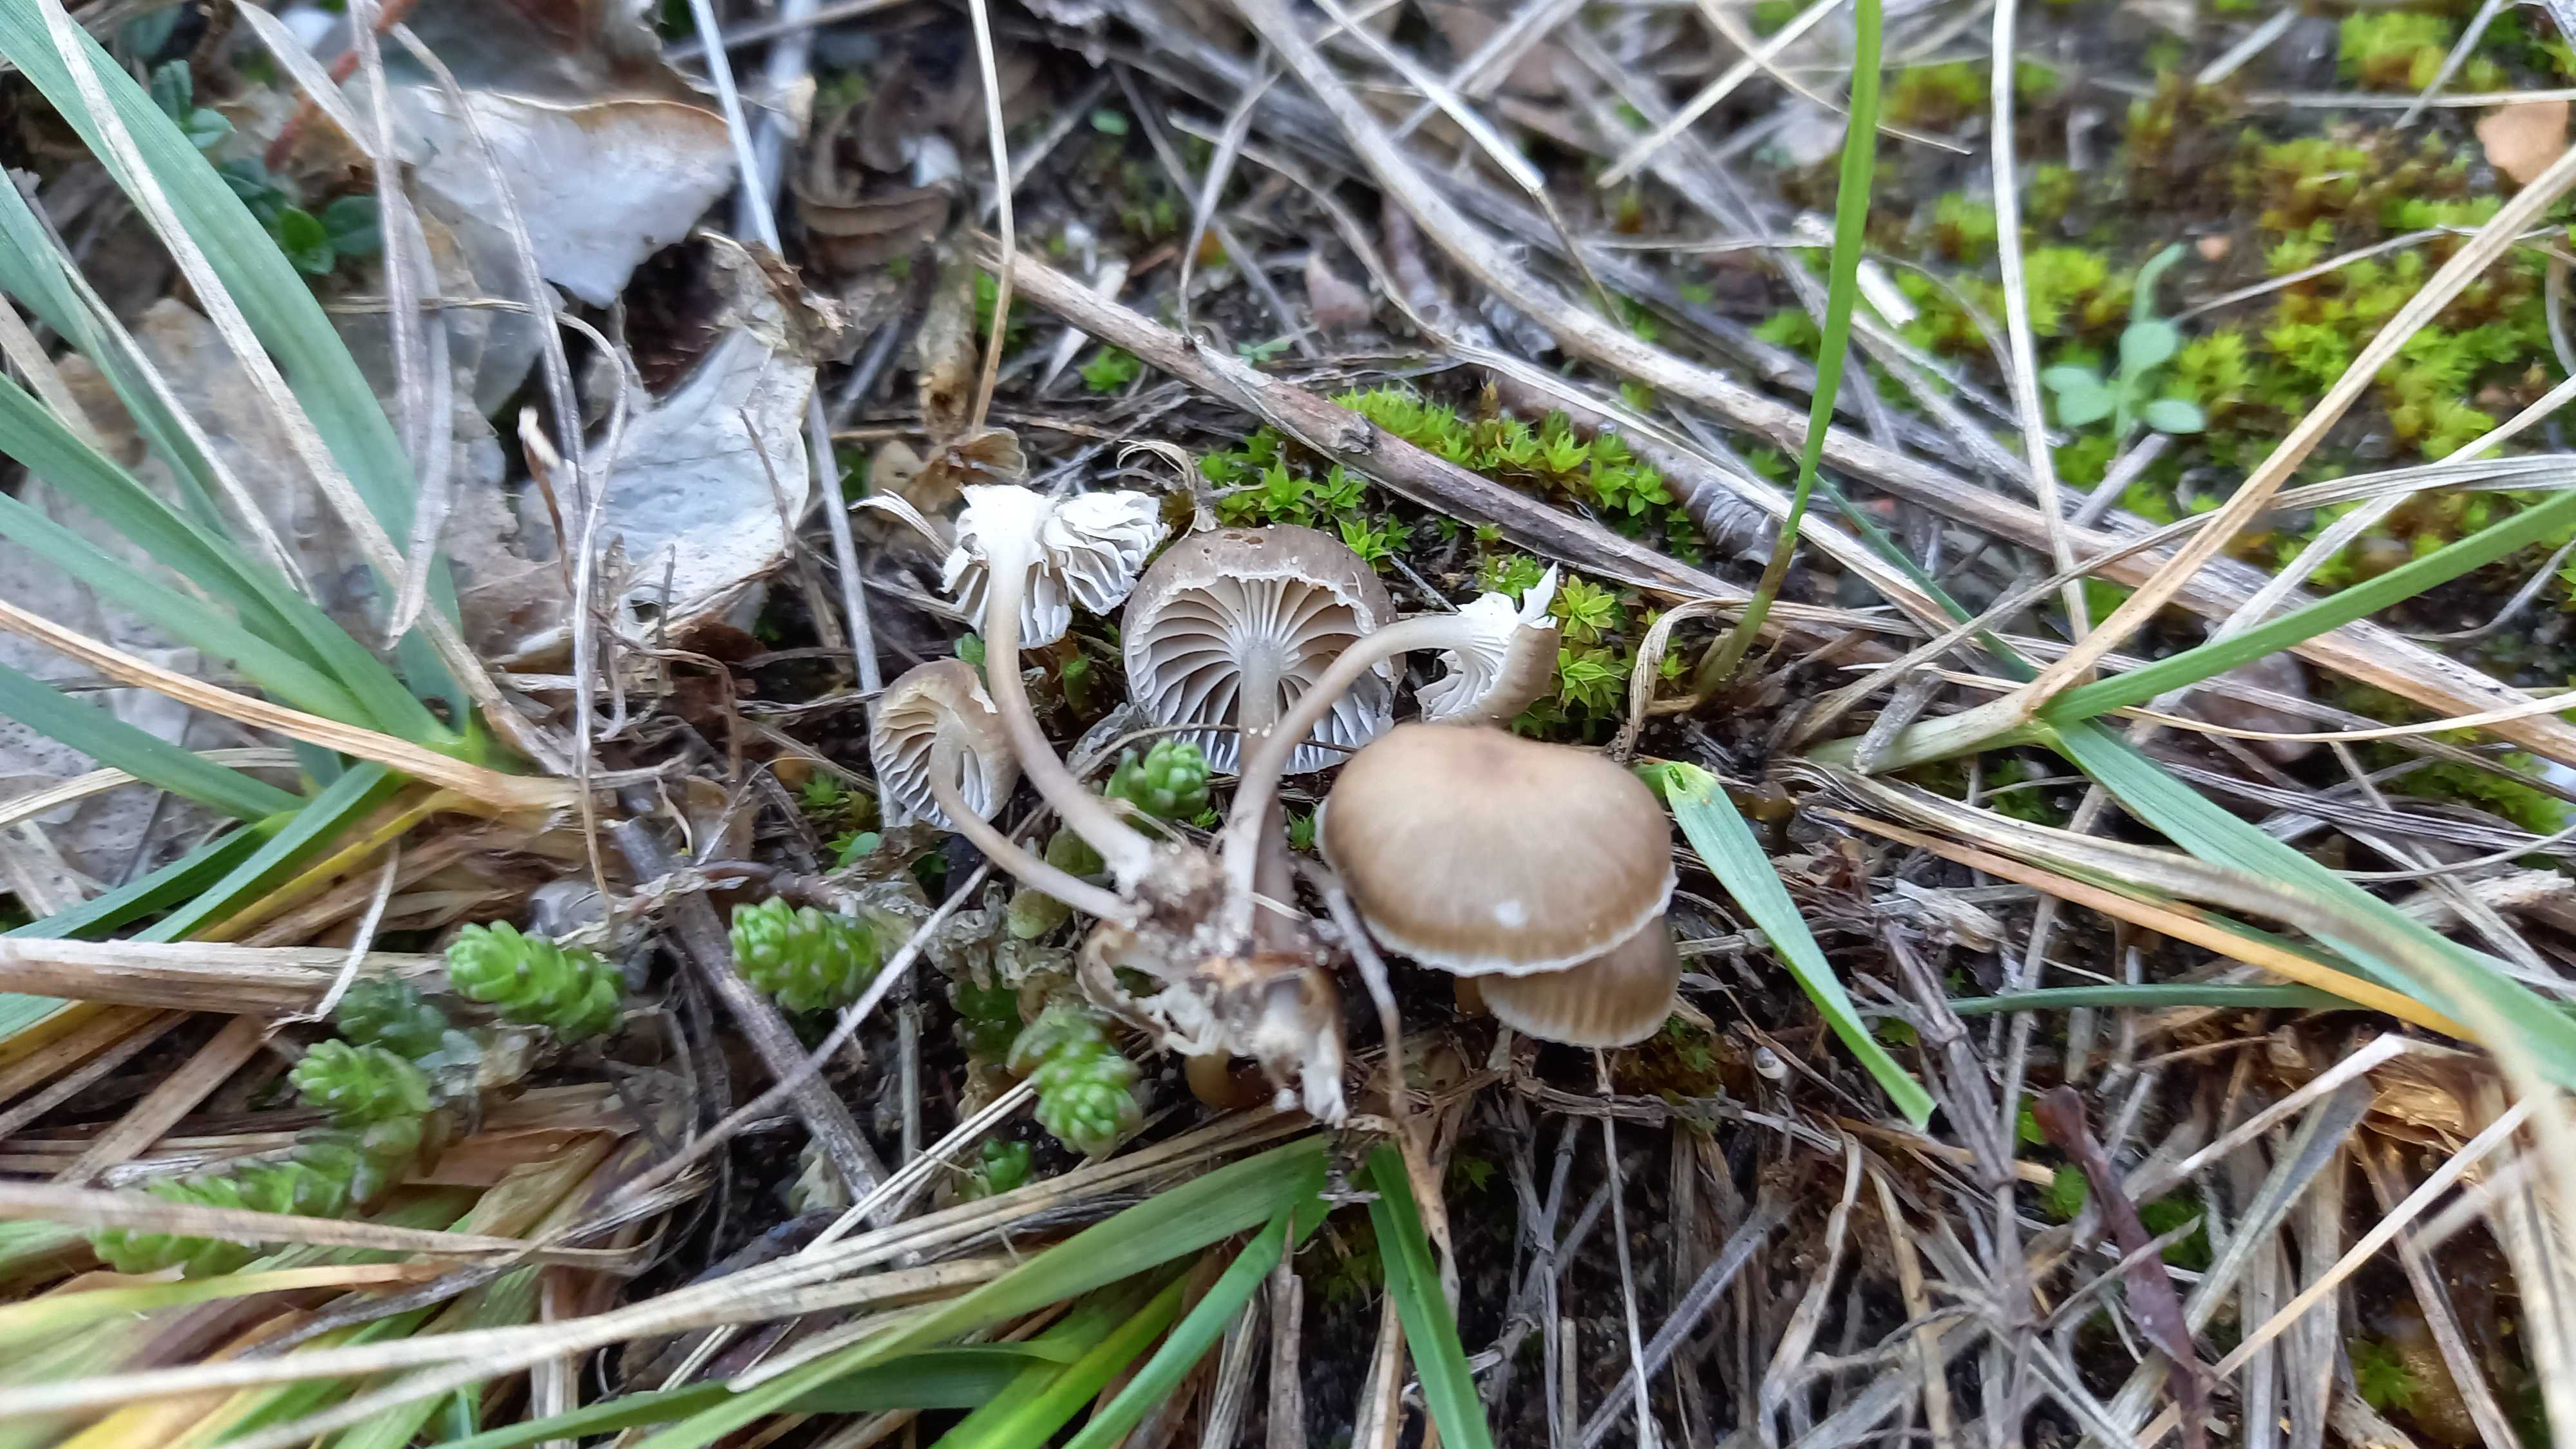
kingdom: Fungi
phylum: Basidiomycota
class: Agaricomycetes
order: Agaricales
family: Mycenaceae
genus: Mycena
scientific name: Mycena pseudopicta
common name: overdrevs-huesvamp
